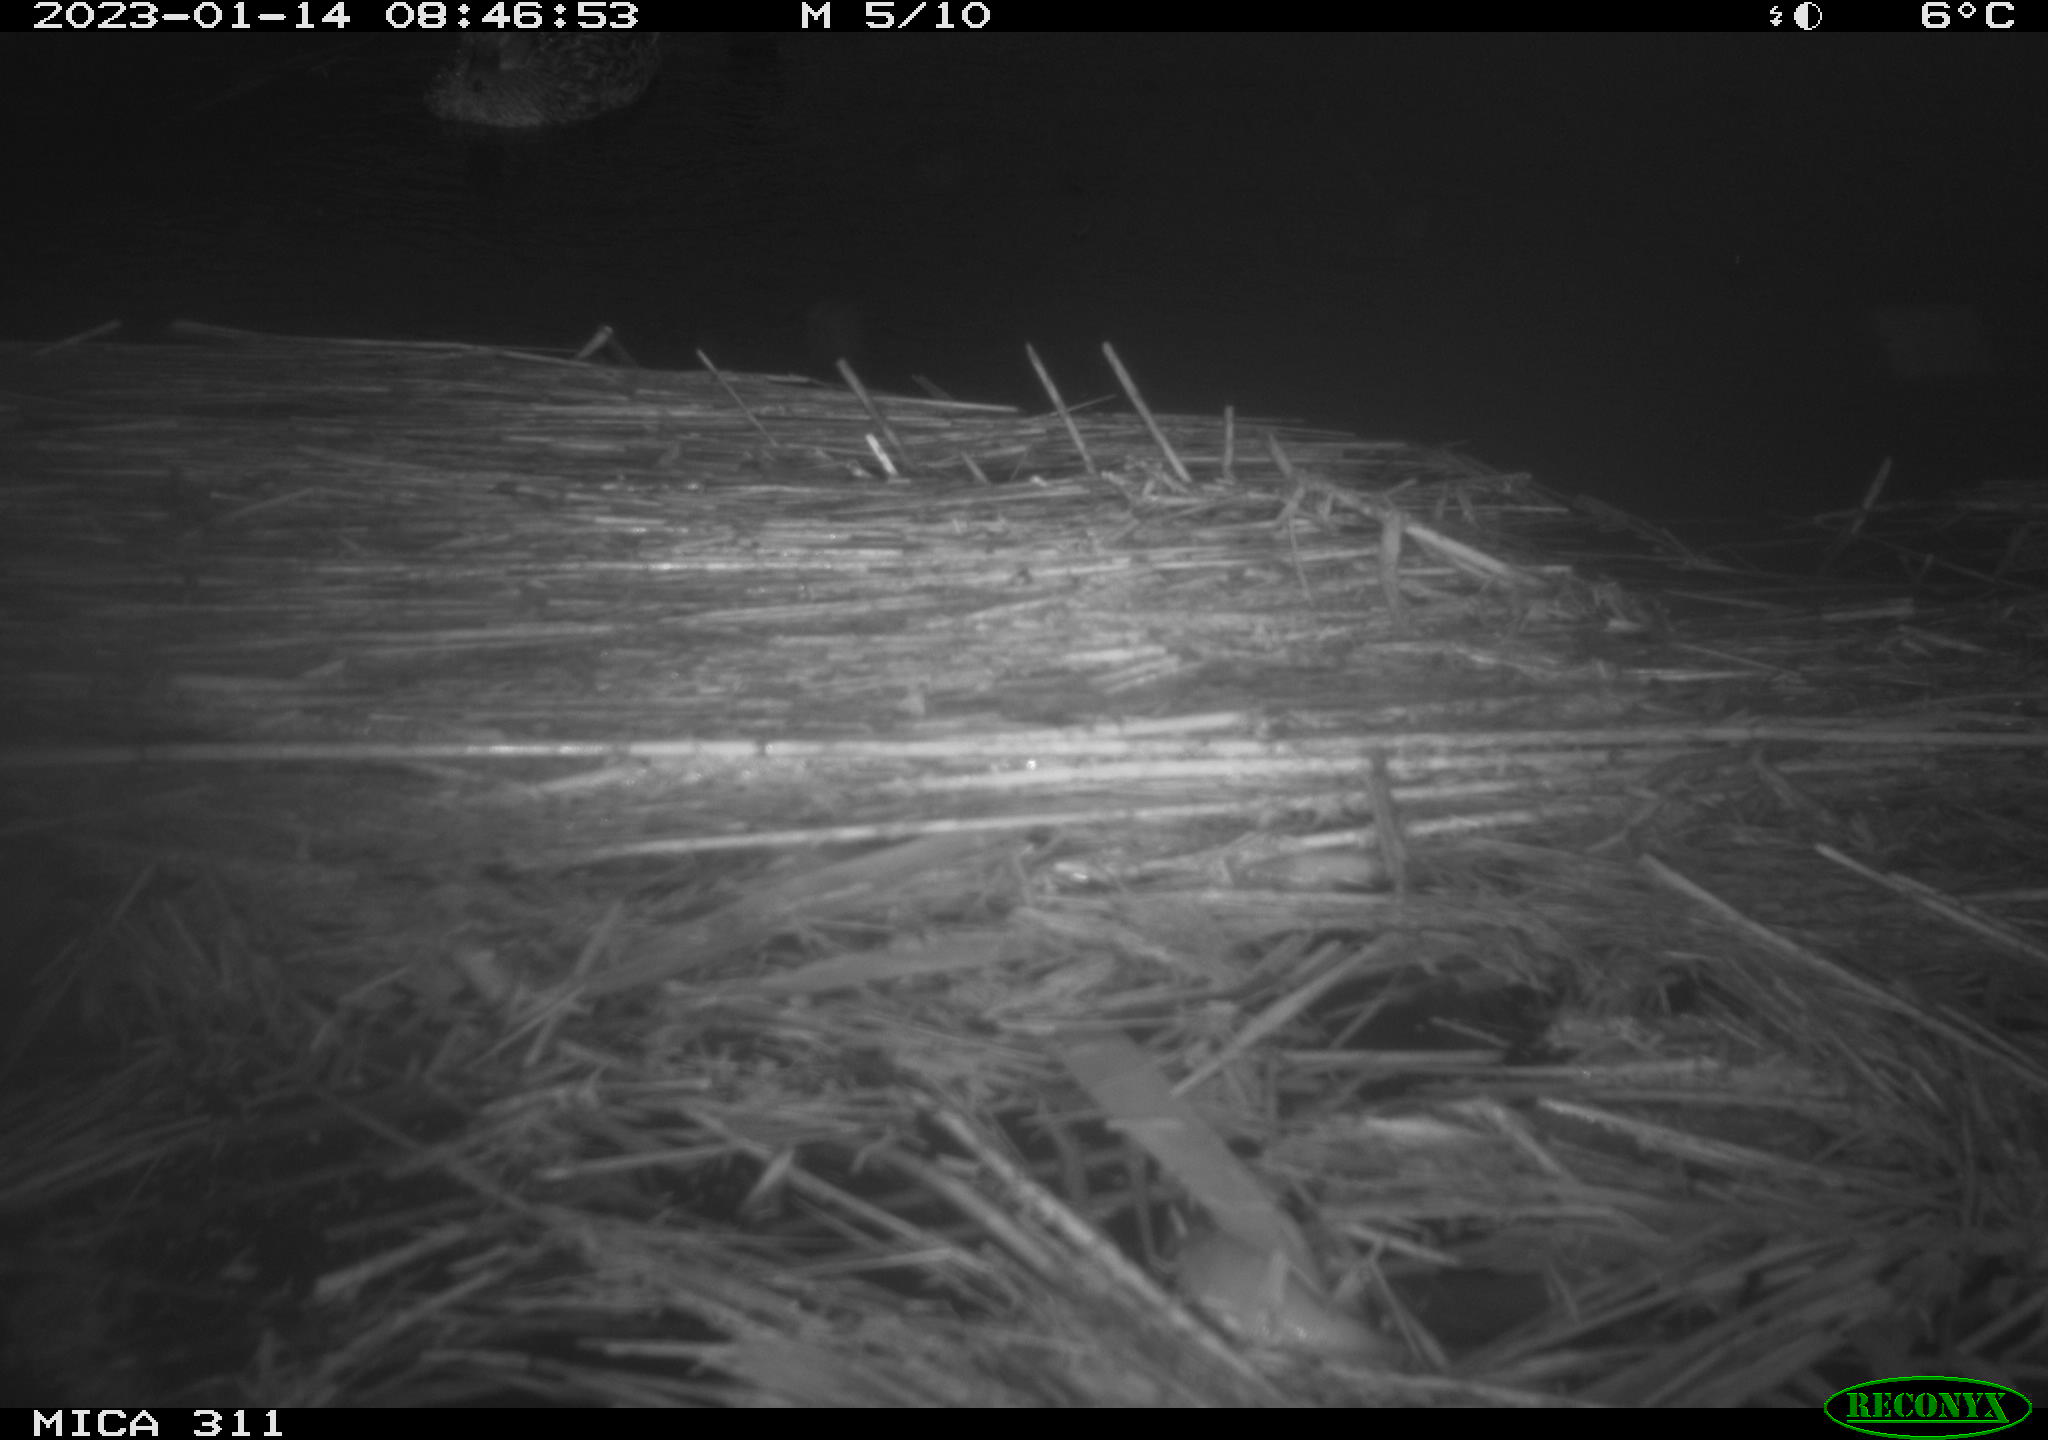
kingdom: Animalia
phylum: Chordata
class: Aves
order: Anseriformes
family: Anatidae
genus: Anas
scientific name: Anas
